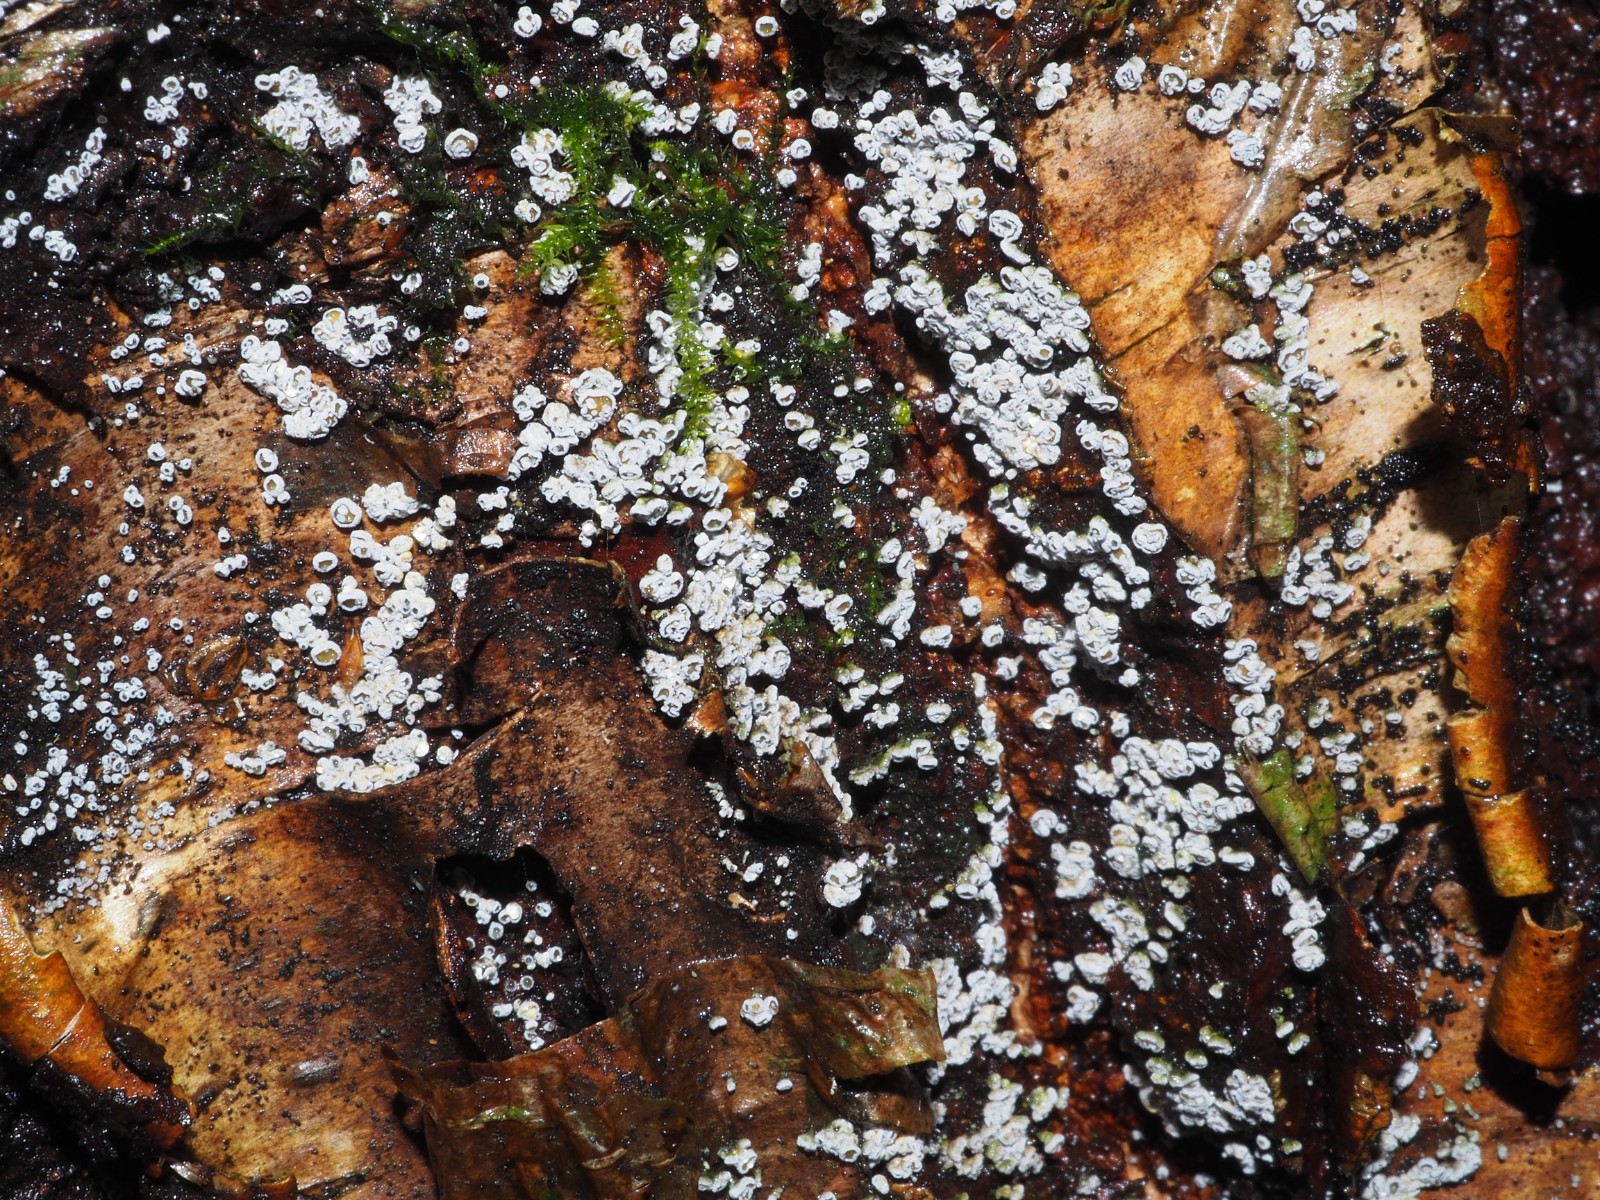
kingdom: Fungi
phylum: Ascomycota
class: Leotiomycetes
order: Helotiales
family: Lachnaceae
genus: Proliferodiscus
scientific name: Proliferodiscus pulveraceus
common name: askegrå frynseskive
